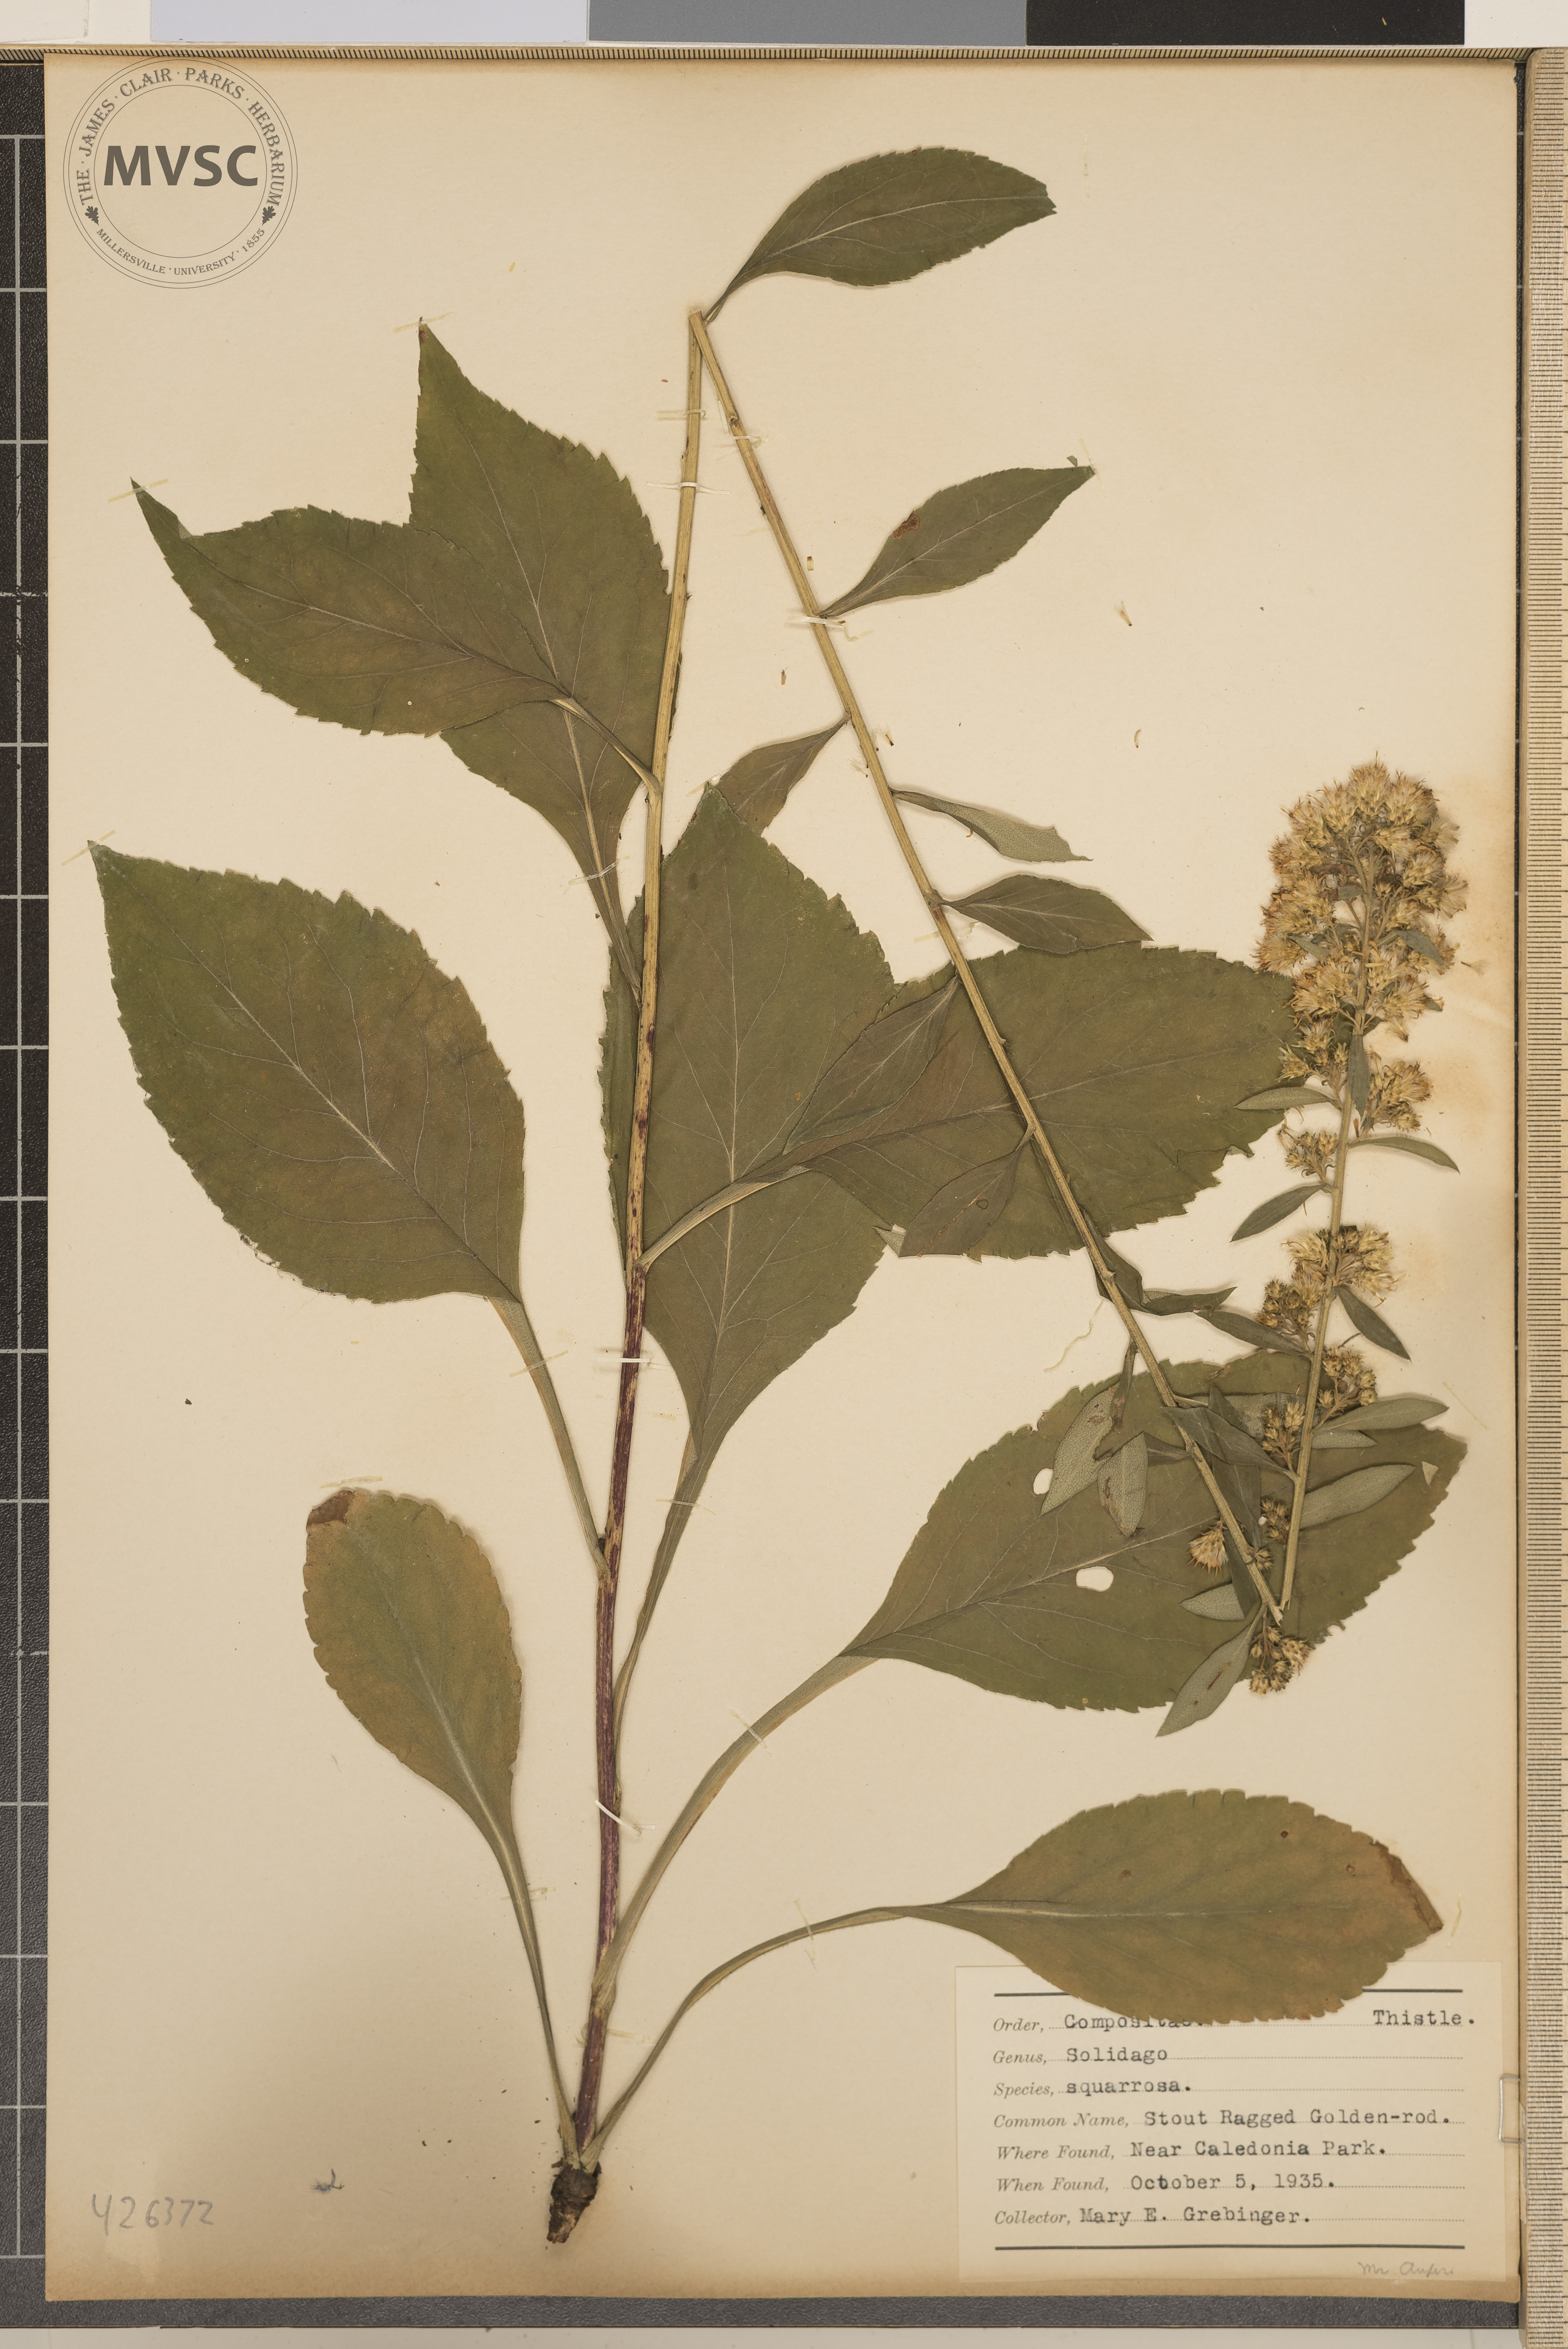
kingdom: Plantae
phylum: Tracheophyta
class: Magnoliopsida
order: Asterales
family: Asteraceae
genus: Solidago
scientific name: Solidago squarrosa
